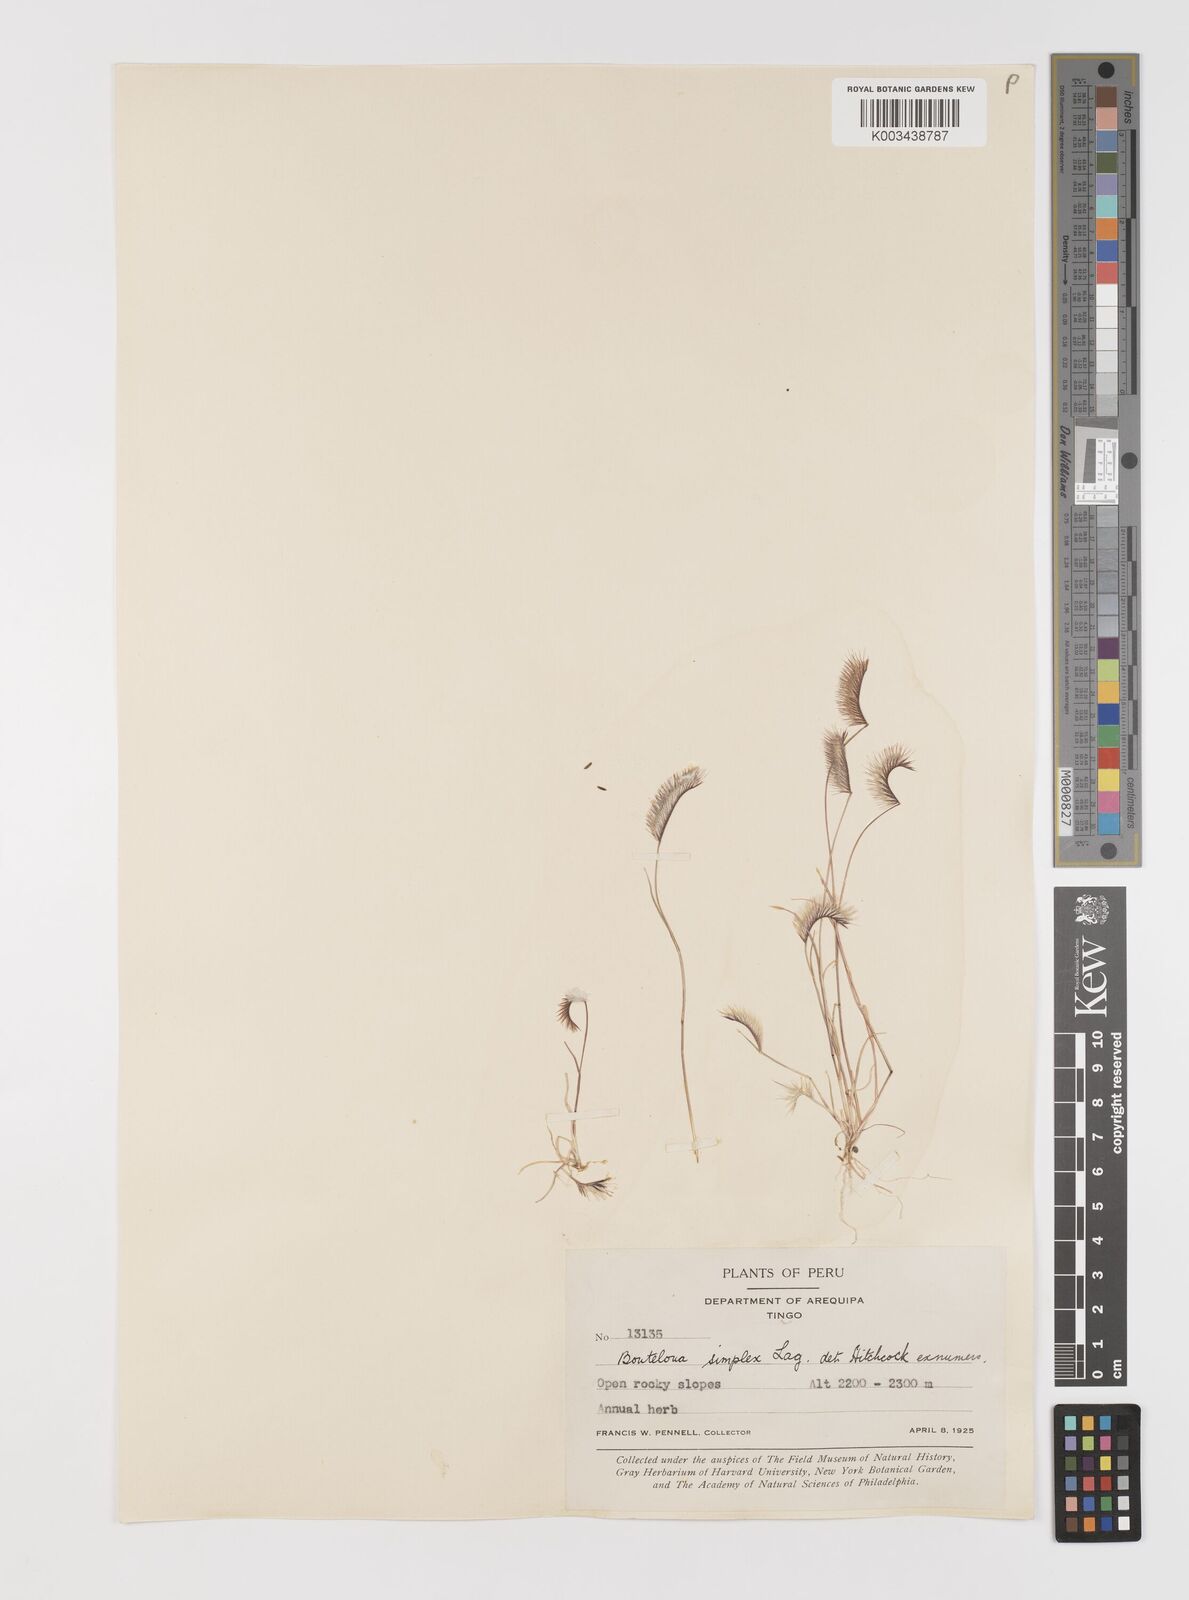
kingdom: Plantae
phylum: Tracheophyta
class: Liliopsida
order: Poales
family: Poaceae
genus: Bouteloua
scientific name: Bouteloua simplex
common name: Mat grama
